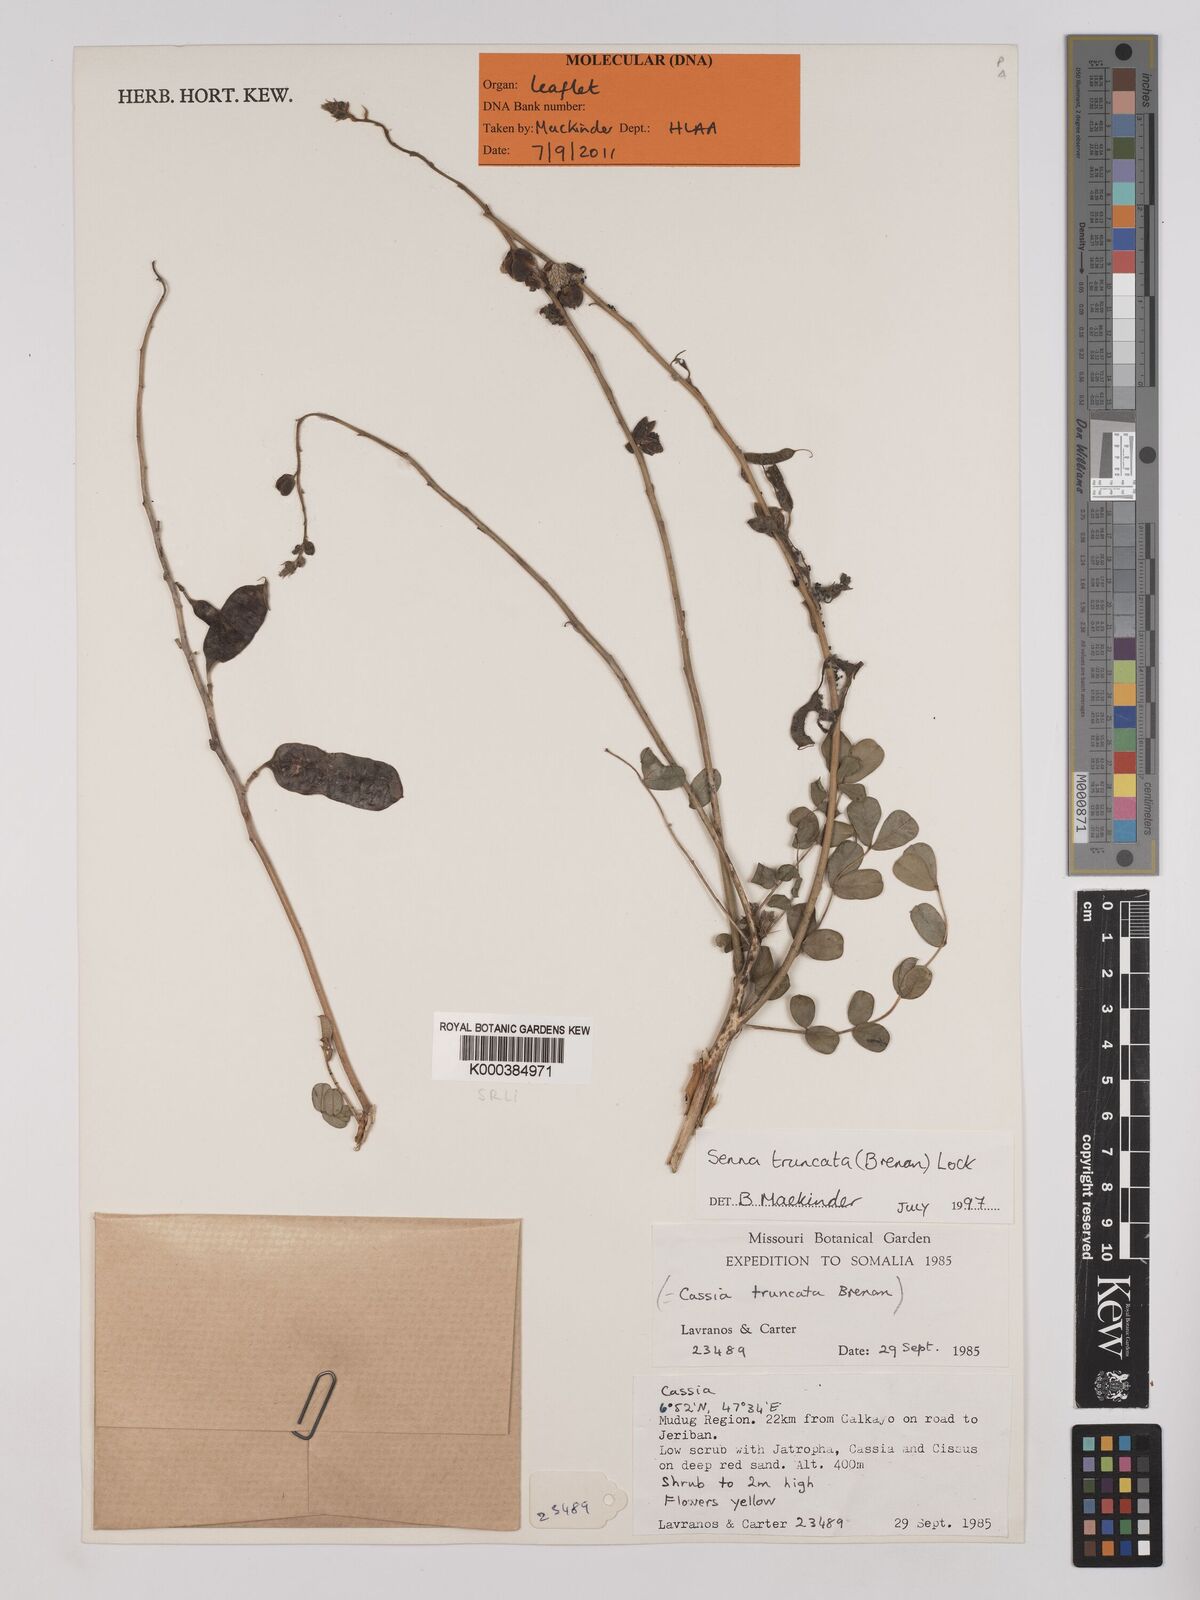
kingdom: Plantae
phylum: Tracheophyta
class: Magnoliopsida
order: Fabales
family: Fabaceae
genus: Senna
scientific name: Senna truncata
